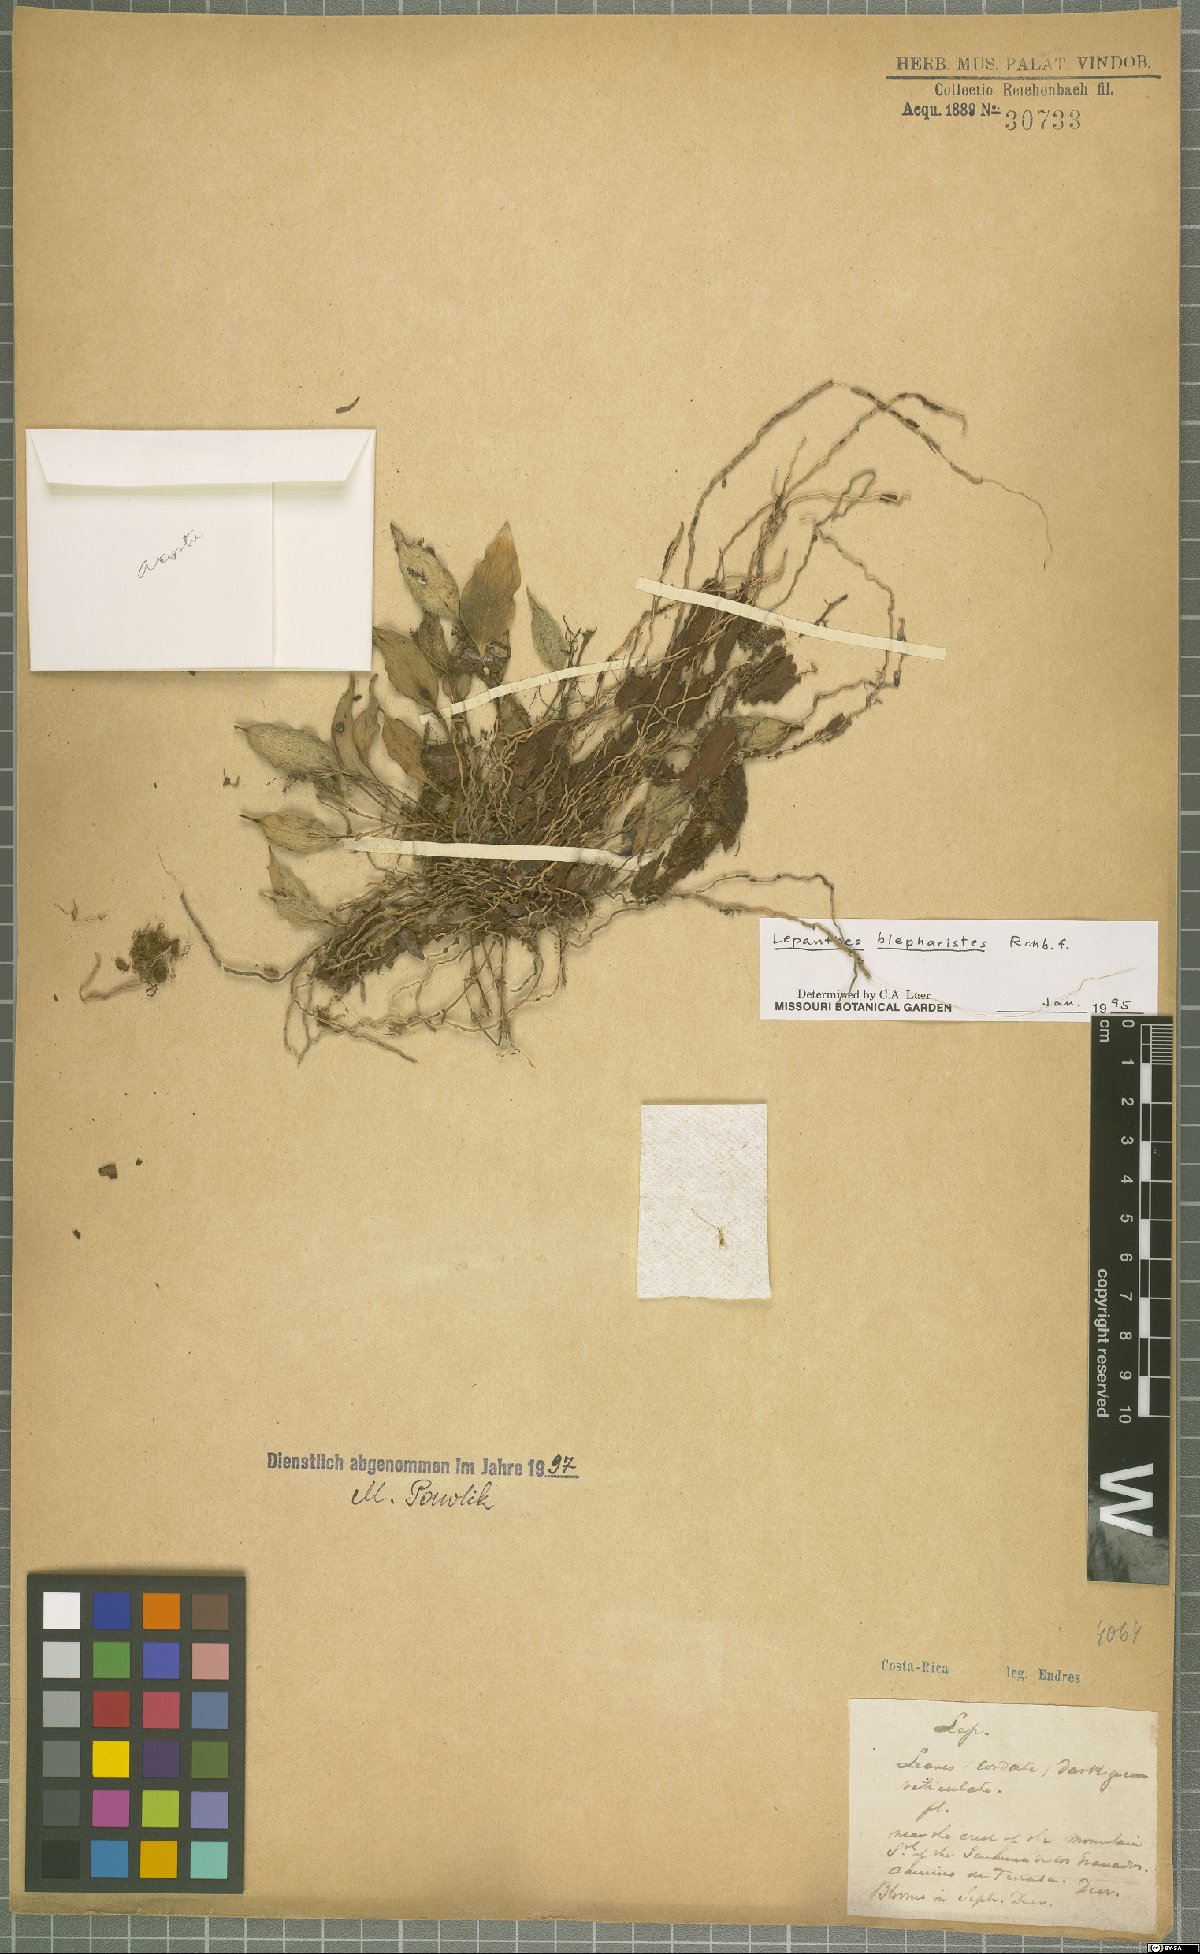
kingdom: Plantae
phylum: Tracheophyta
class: Liliopsida
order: Asparagales
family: Orchidaceae
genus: Lepanthes
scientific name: Lepanthes blepharistes
